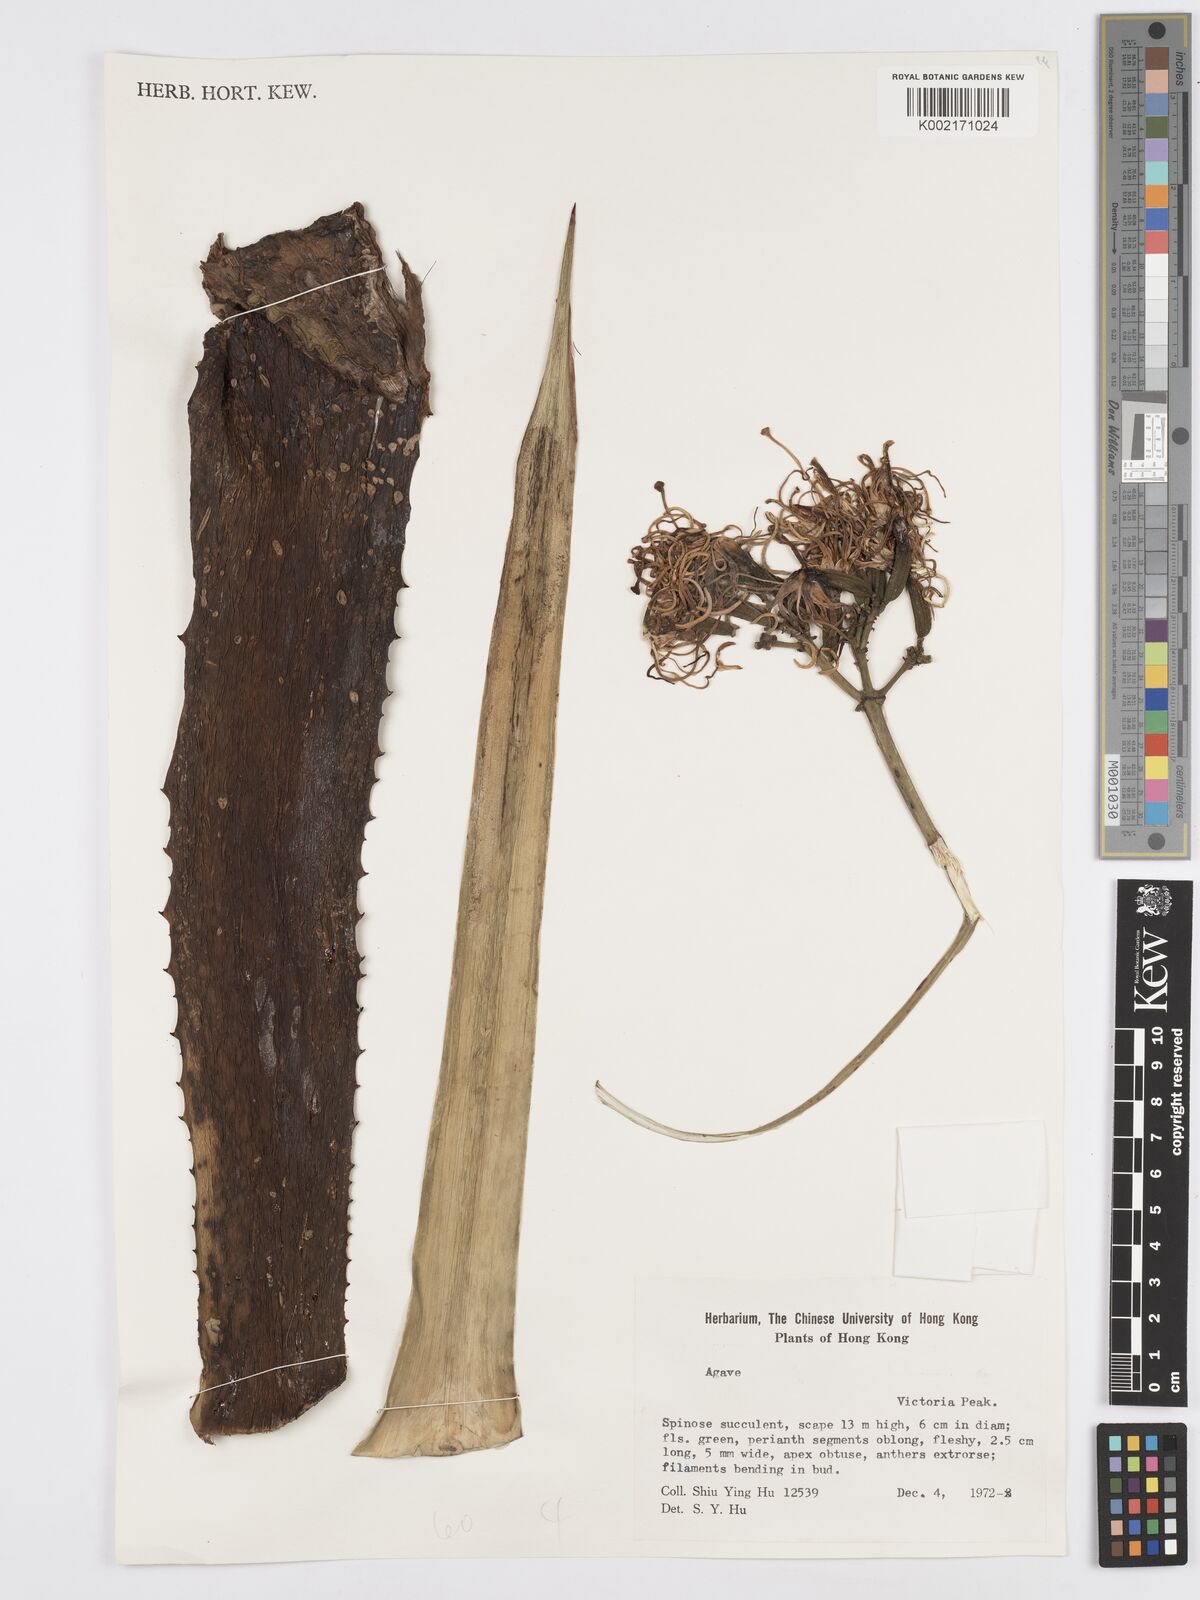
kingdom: Plantae
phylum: Tracheophyta
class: Liliopsida
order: Asparagales
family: Asparagaceae
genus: Agave
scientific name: Agave
